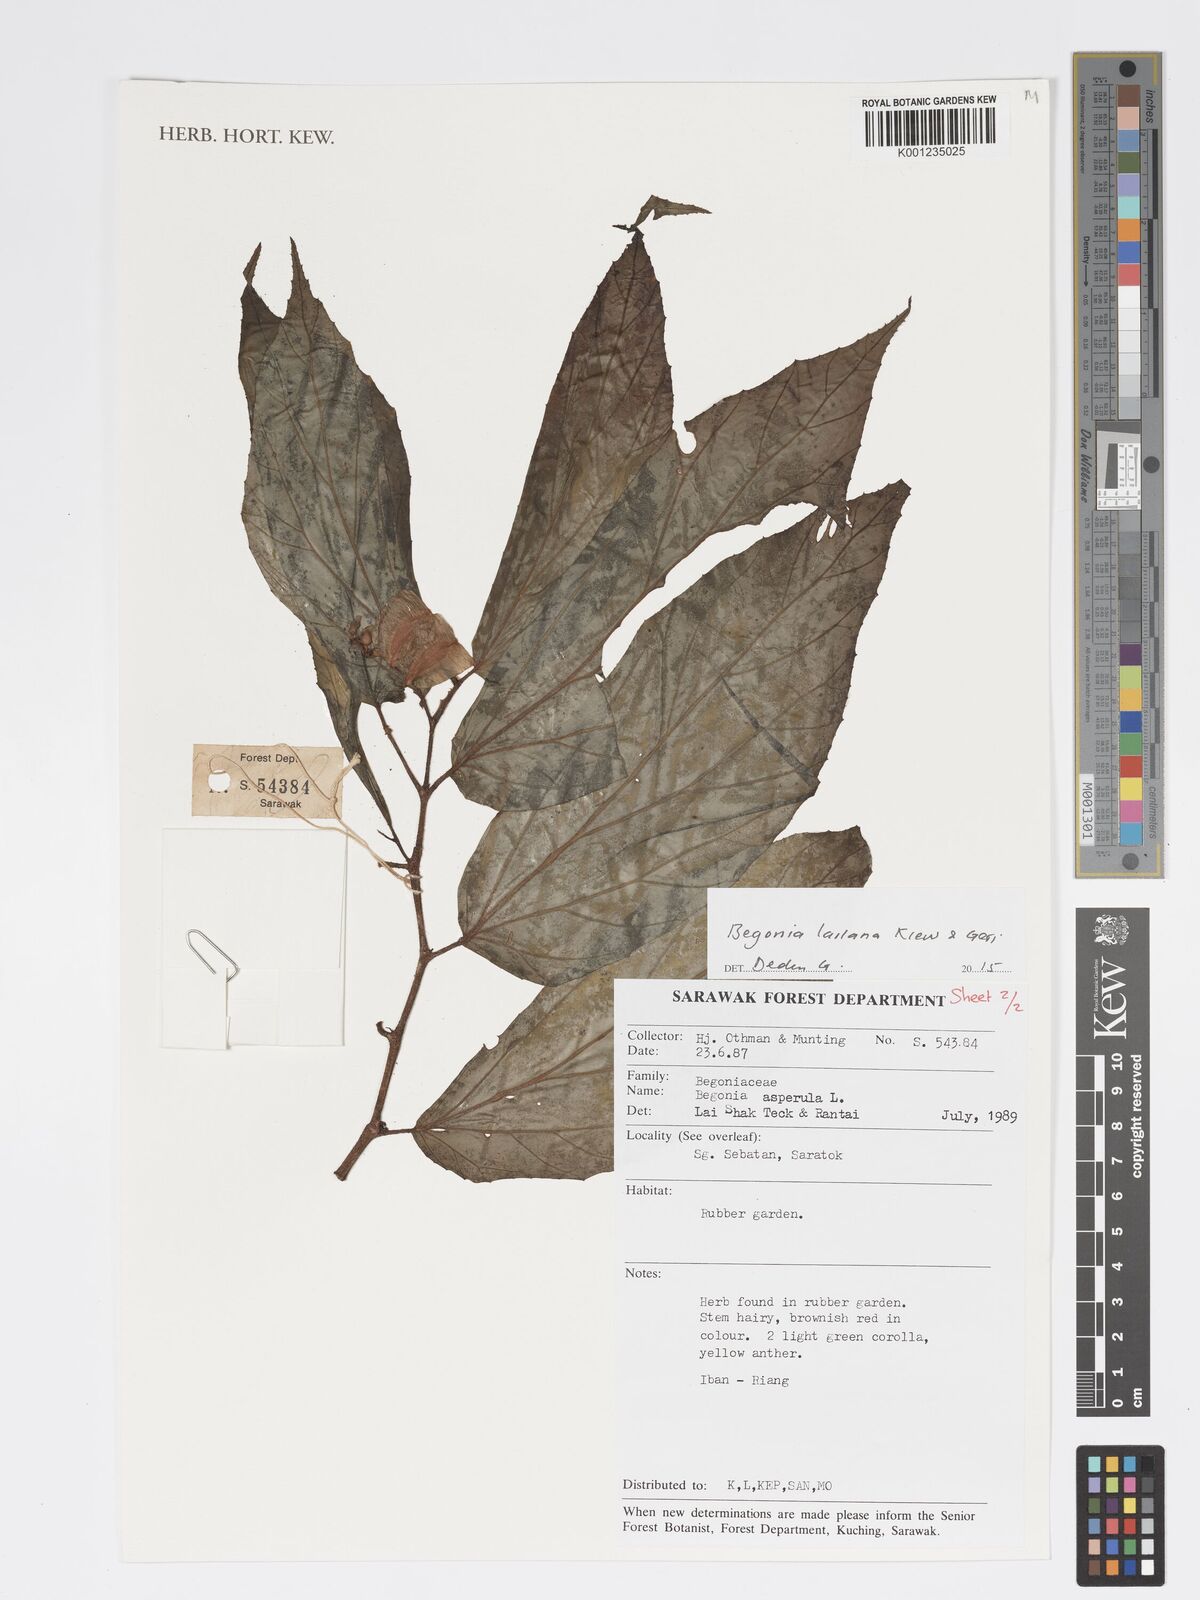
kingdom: Plantae
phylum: Tracheophyta
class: Magnoliopsida
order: Cucurbitales
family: Begoniaceae
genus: Begonia
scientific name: Begonia lailana
